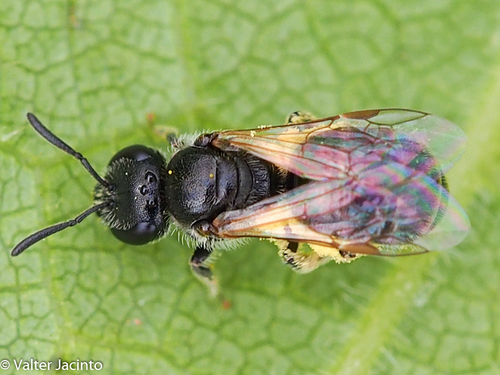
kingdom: Animalia
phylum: Arthropoda
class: Insecta
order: Hymenoptera
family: Halictidae
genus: Lasioglossum
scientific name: Lasioglossum
